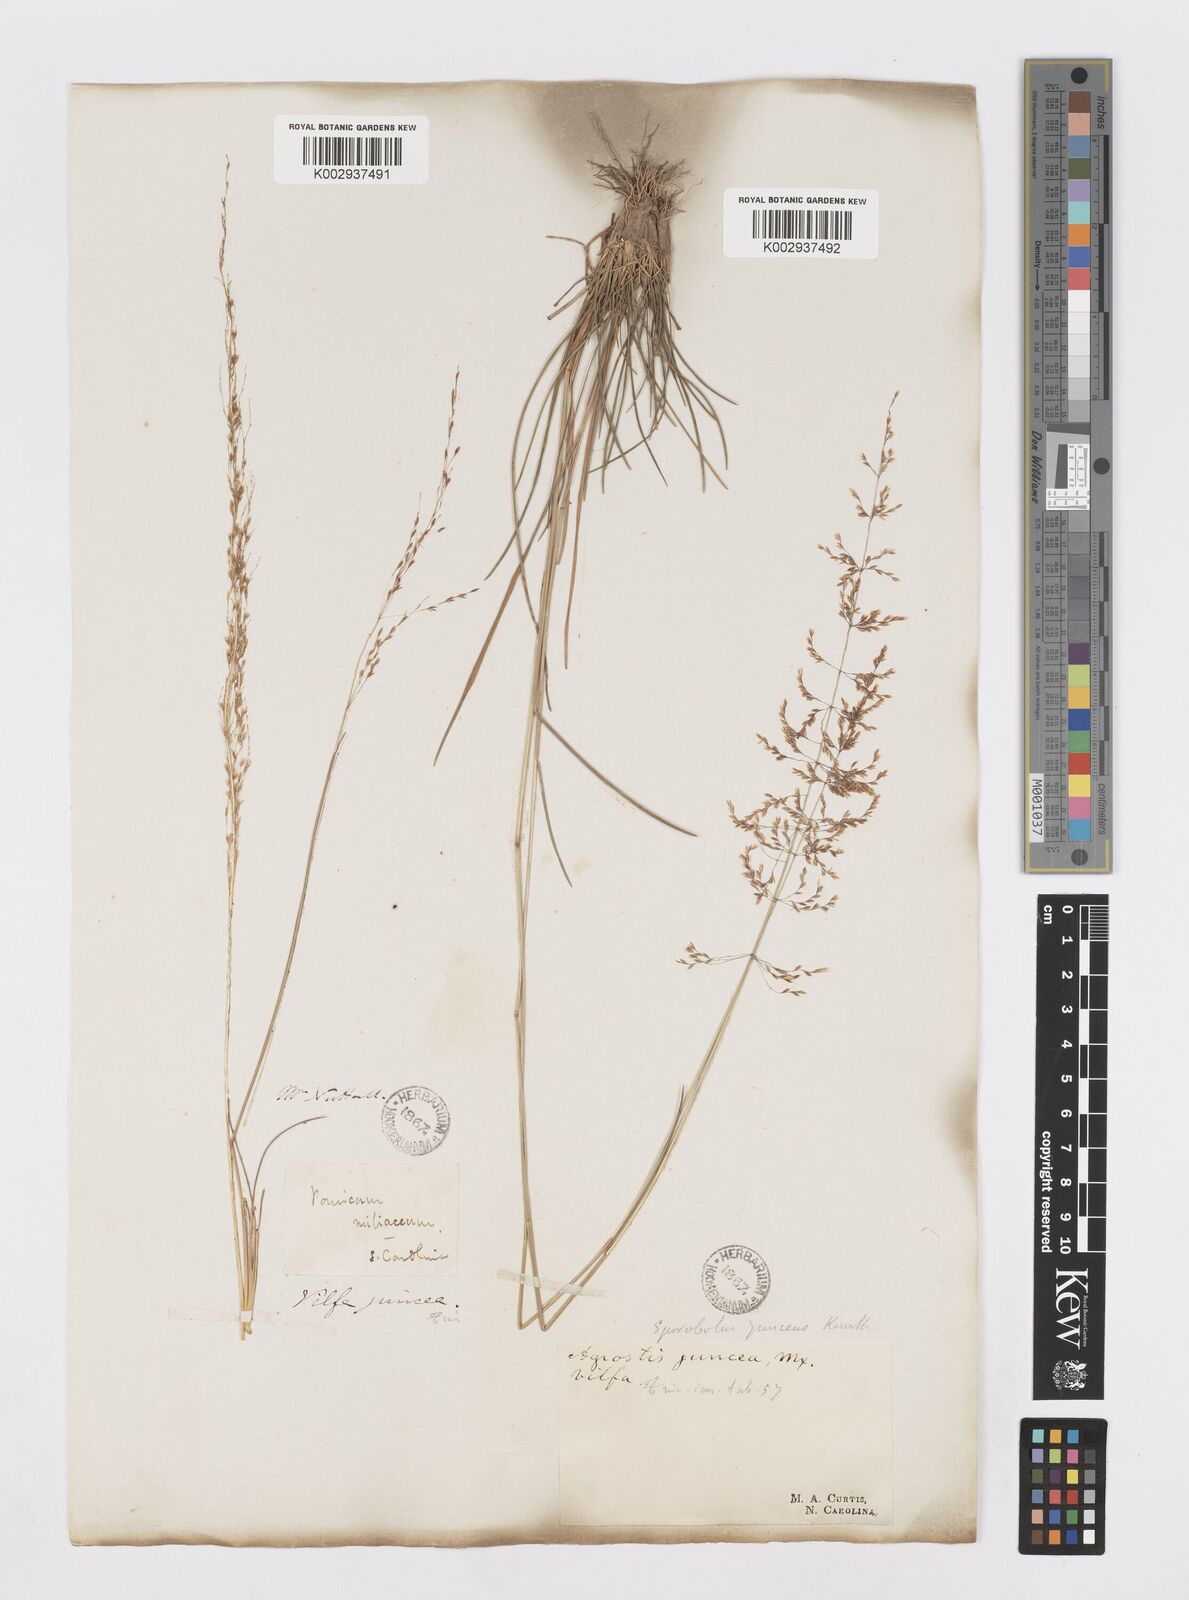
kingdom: Plantae
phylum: Tracheophyta
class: Liliopsida
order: Poales
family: Poaceae
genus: Sporobolus
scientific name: Sporobolus junceus
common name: Lizard grass
